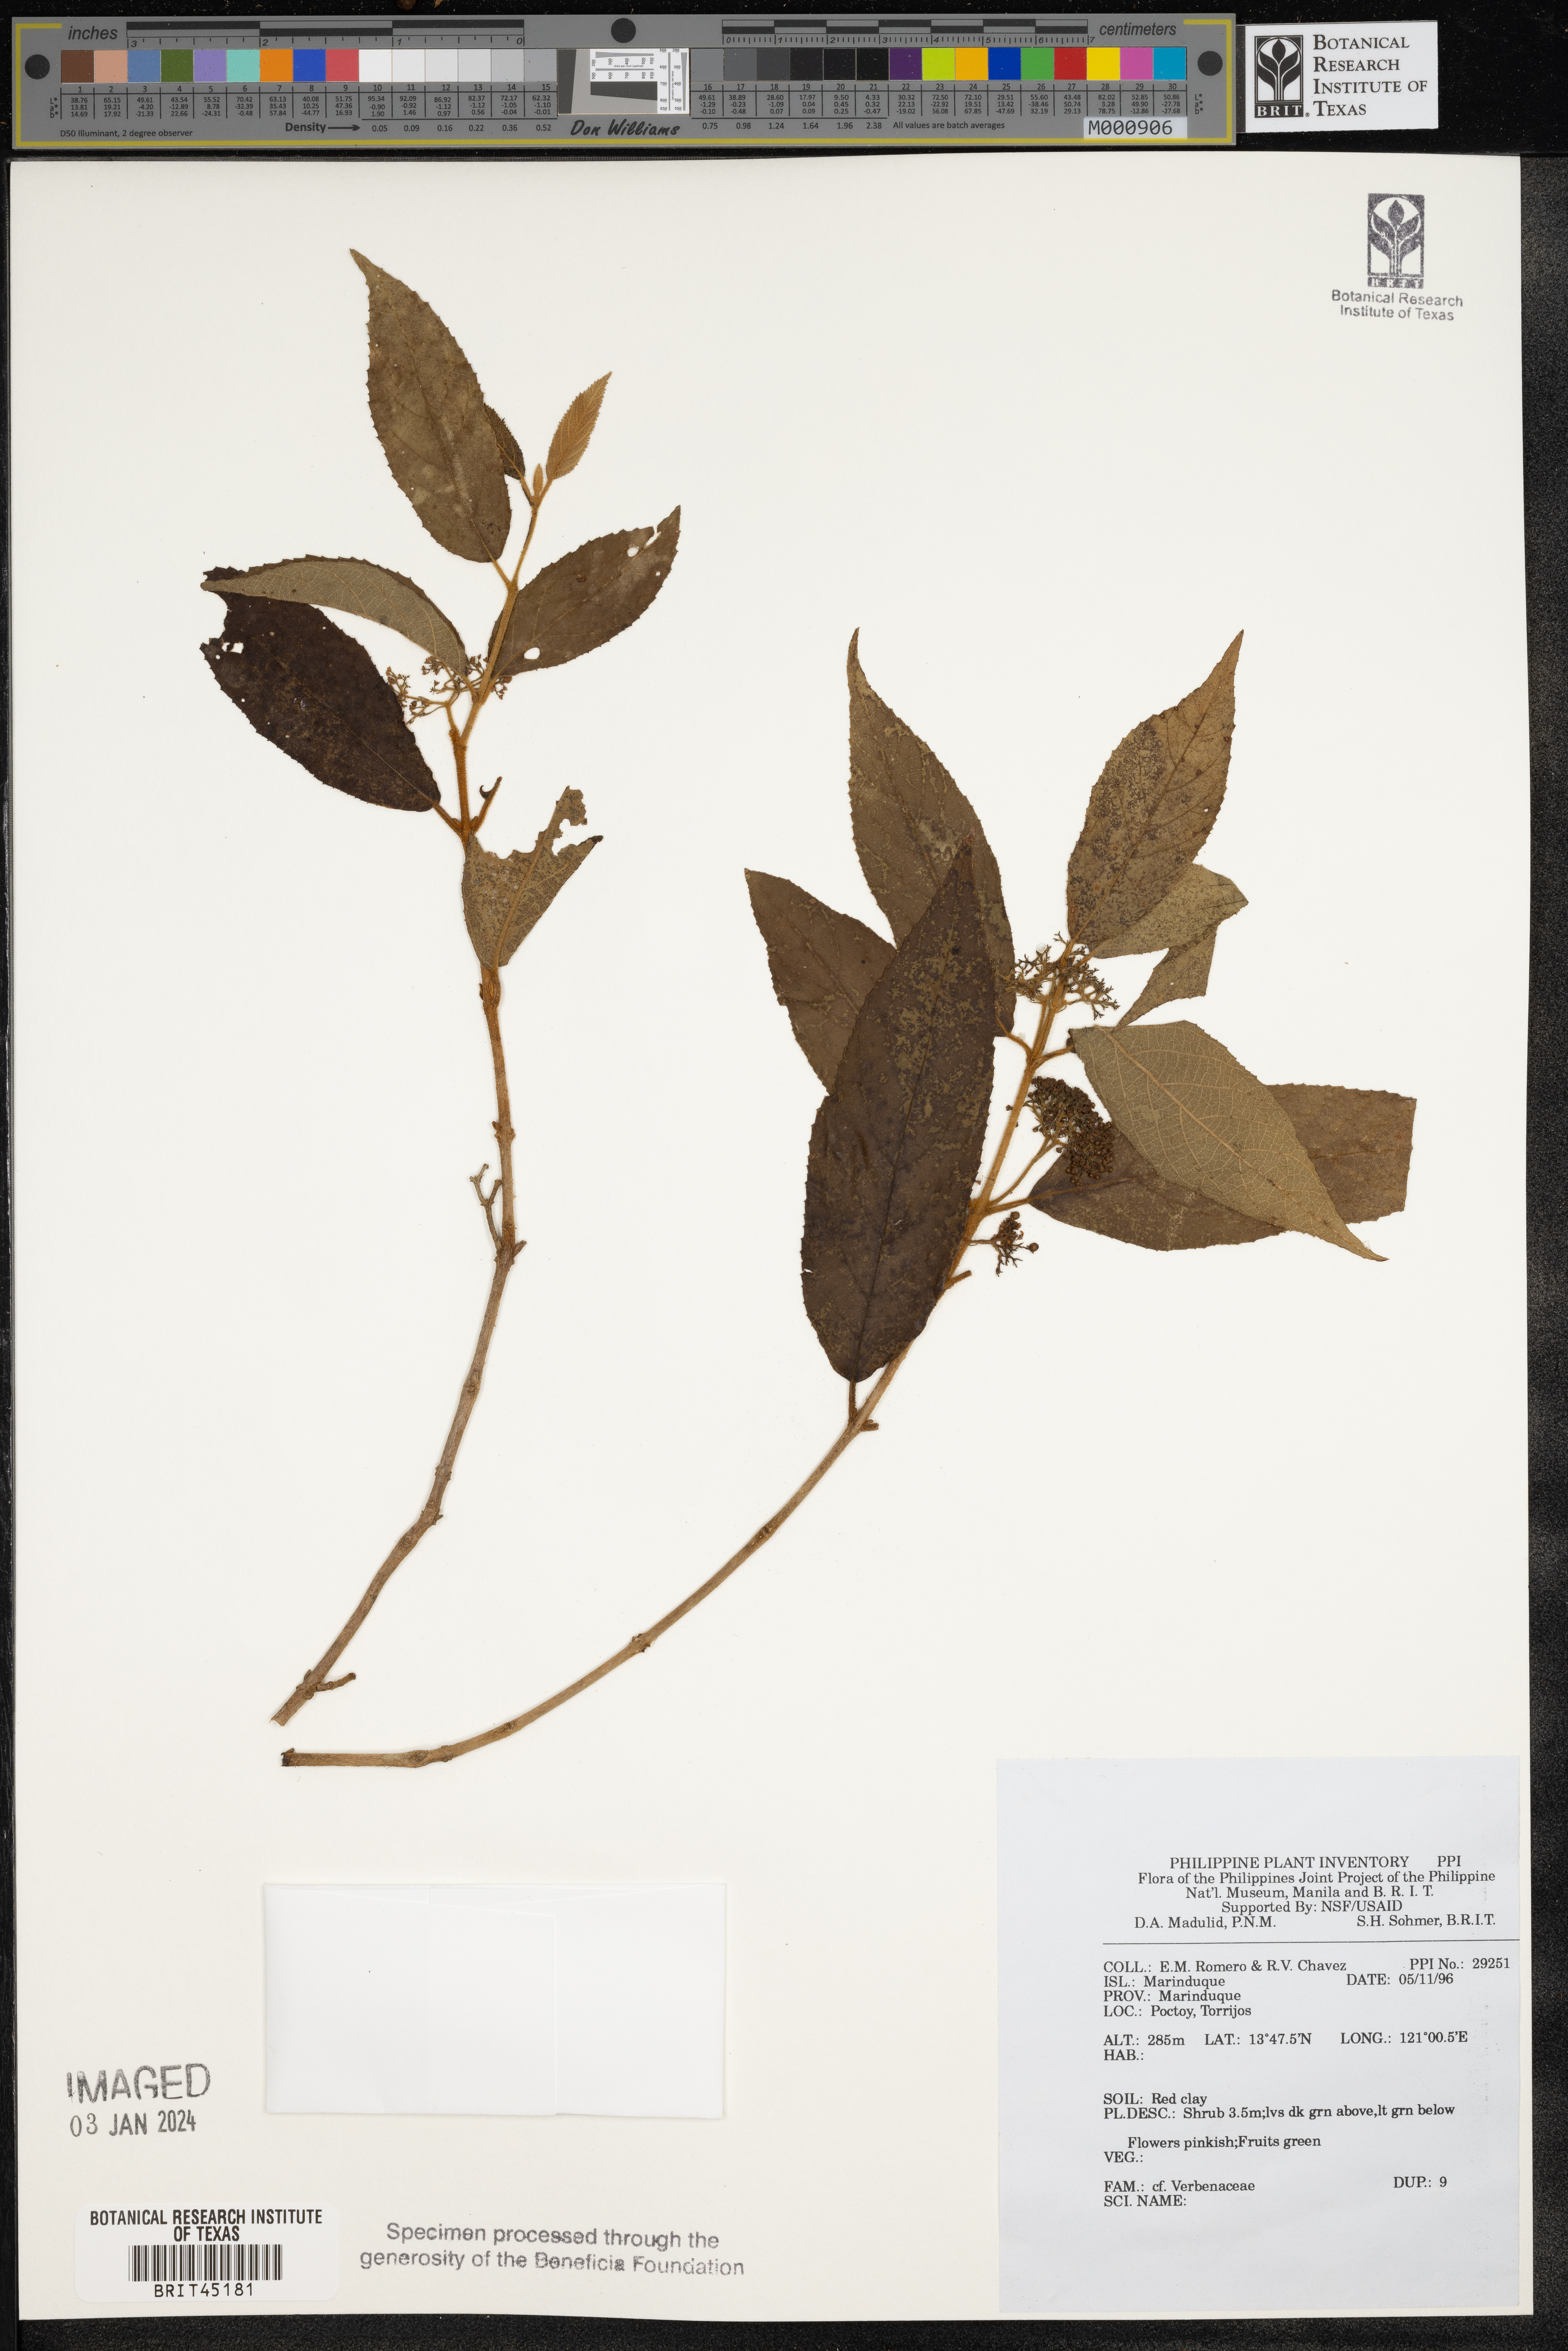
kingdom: Plantae
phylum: Tracheophyta
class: Magnoliopsida
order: Lamiales
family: Verbenaceae
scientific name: Verbenaceae
